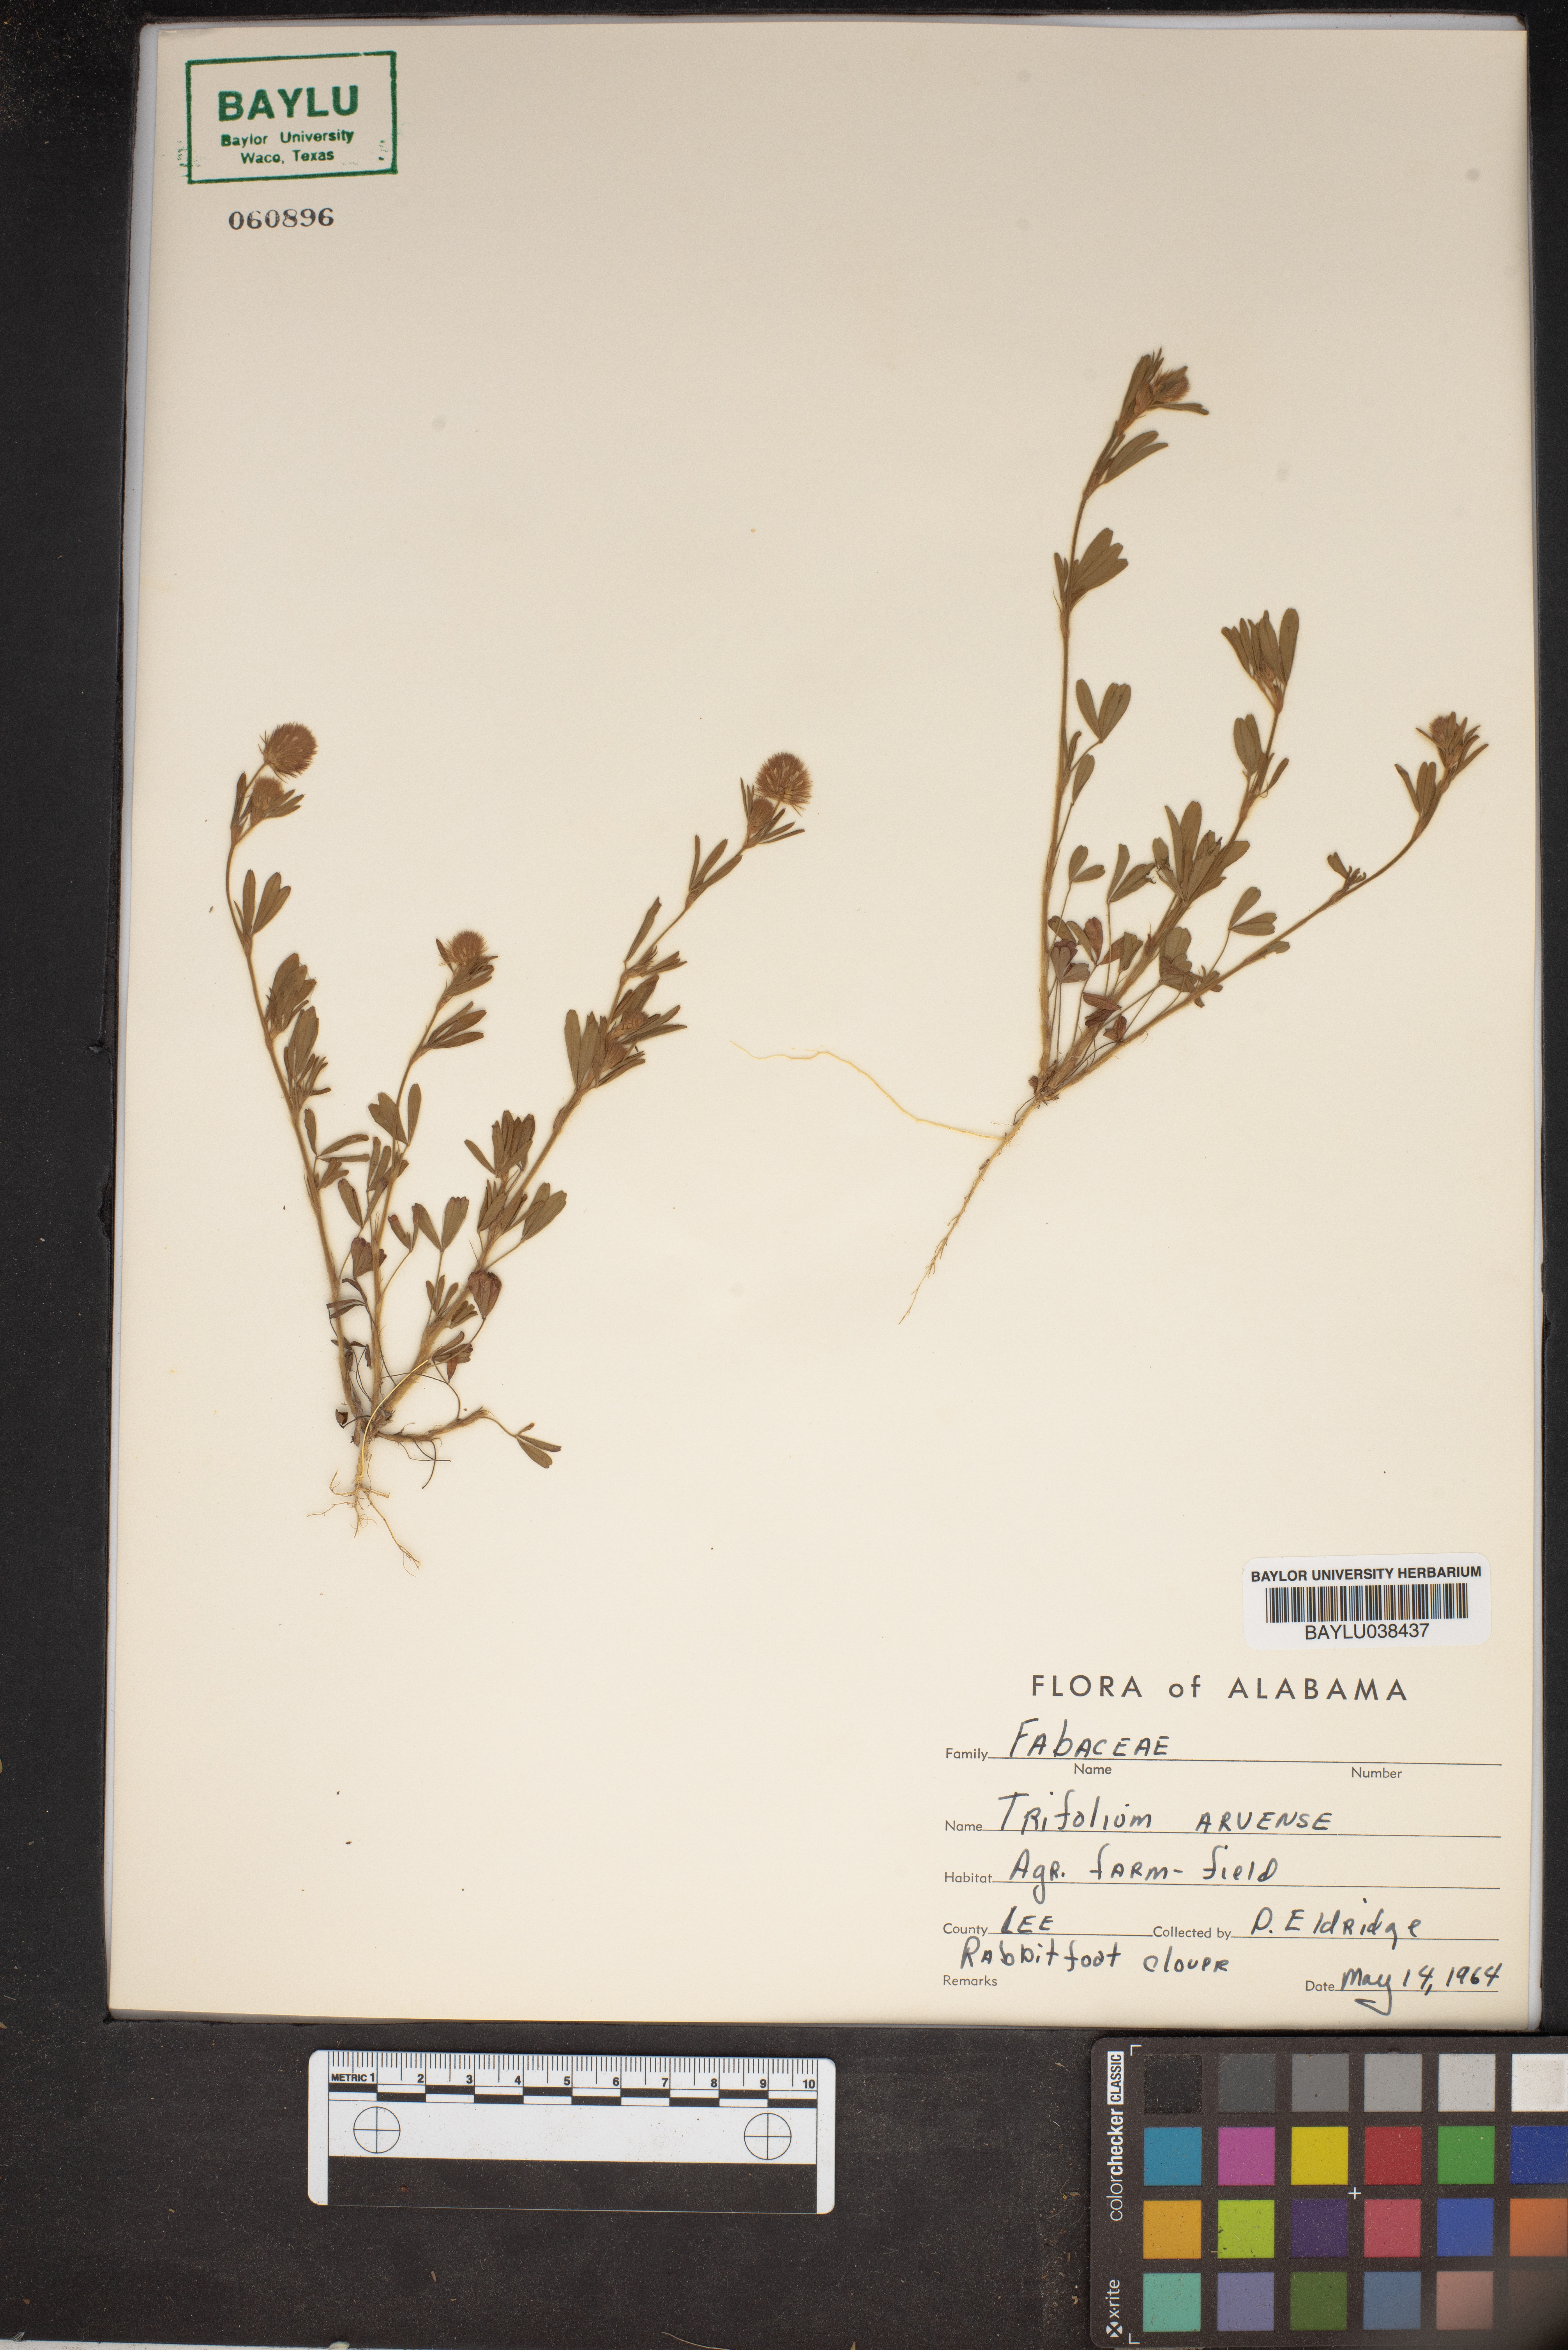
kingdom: Plantae
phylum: Tracheophyta
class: Magnoliopsida
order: Fabales
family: Fabaceae
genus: Trifolium
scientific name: Trifolium arvense
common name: Hare's-foot clover
